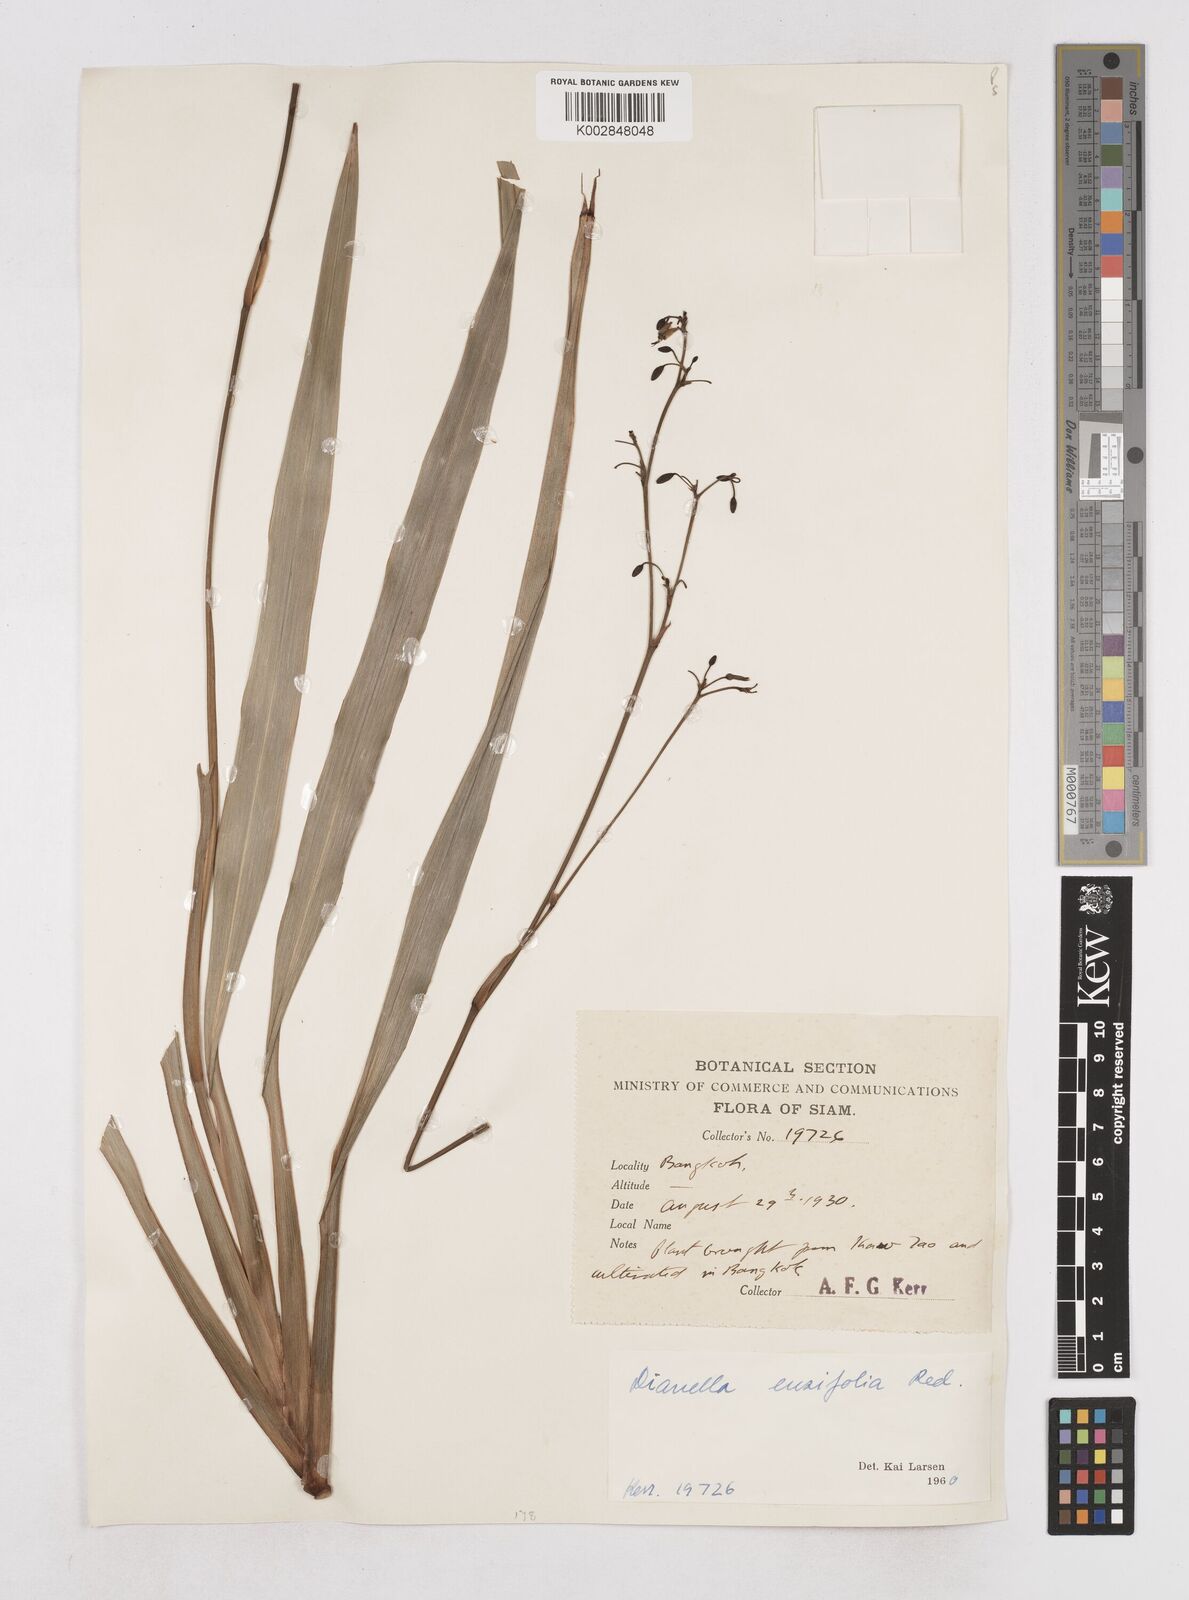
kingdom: Plantae
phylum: Tracheophyta
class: Liliopsida
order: Asparagales
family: Asphodelaceae
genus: Dianella
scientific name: Dianella ensifolia
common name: New zealand lilyplant
